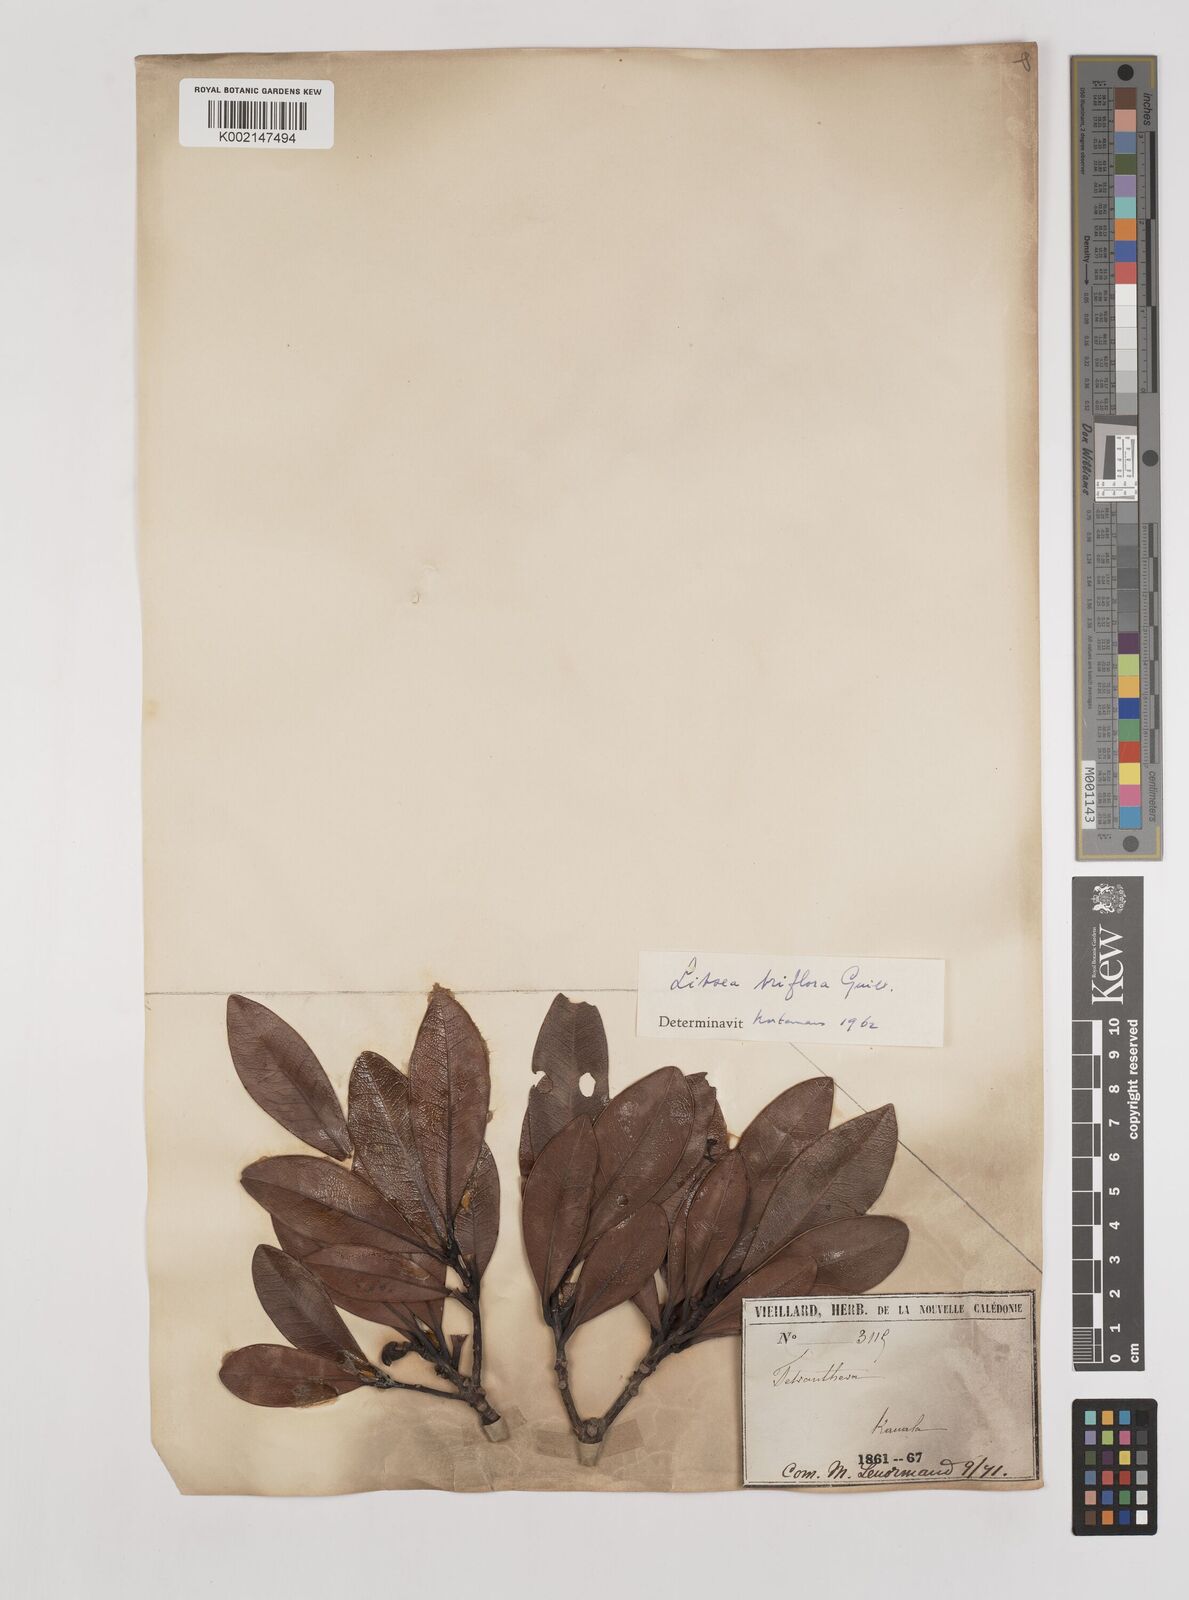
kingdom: Plantae
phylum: Tracheophyta
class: Magnoliopsida
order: Laurales
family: Lauraceae
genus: Litsea
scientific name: Litsea triflora
